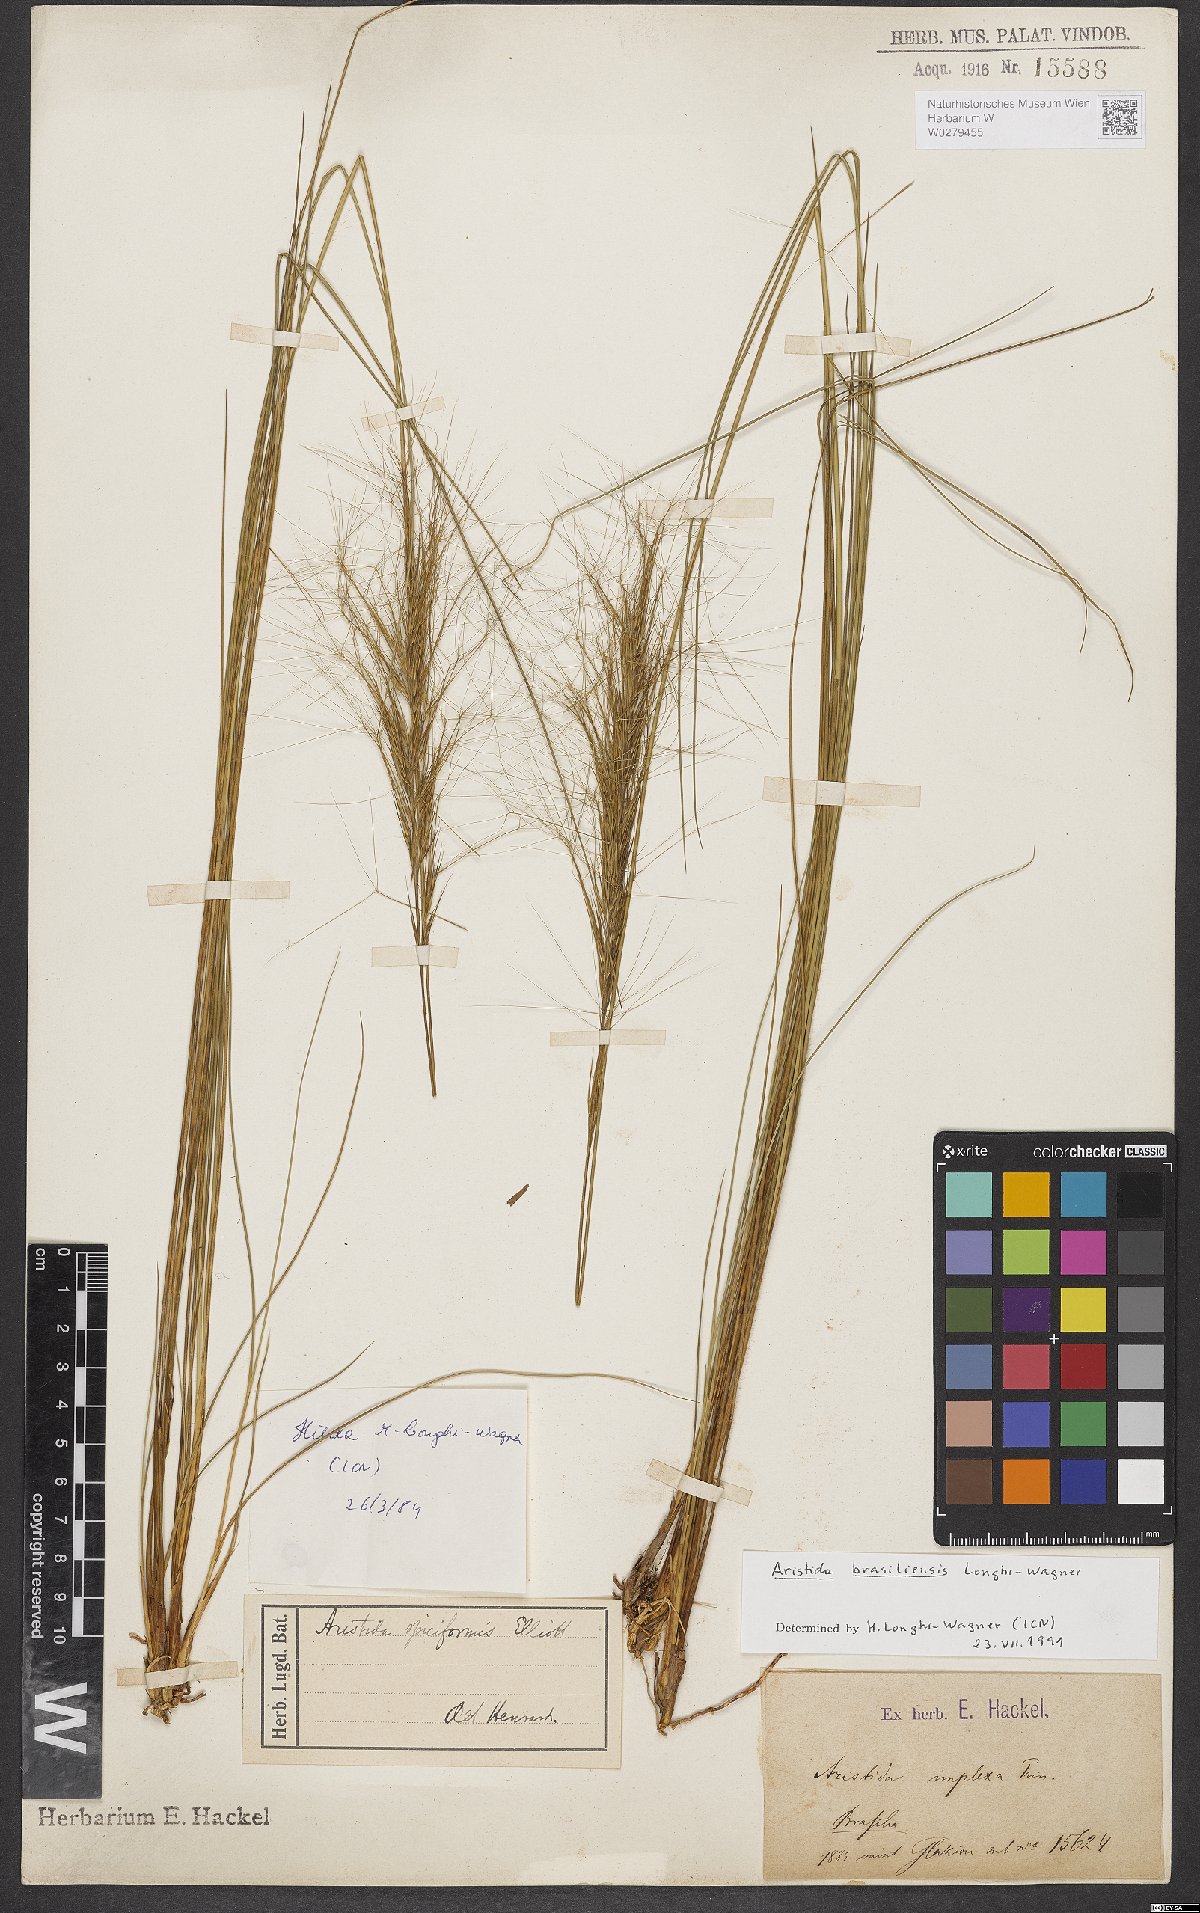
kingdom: Plantae
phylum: Tracheophyta
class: Liliopsida
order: Poales
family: Poaceae
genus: Aristida
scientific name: Aristida brasiliensis
